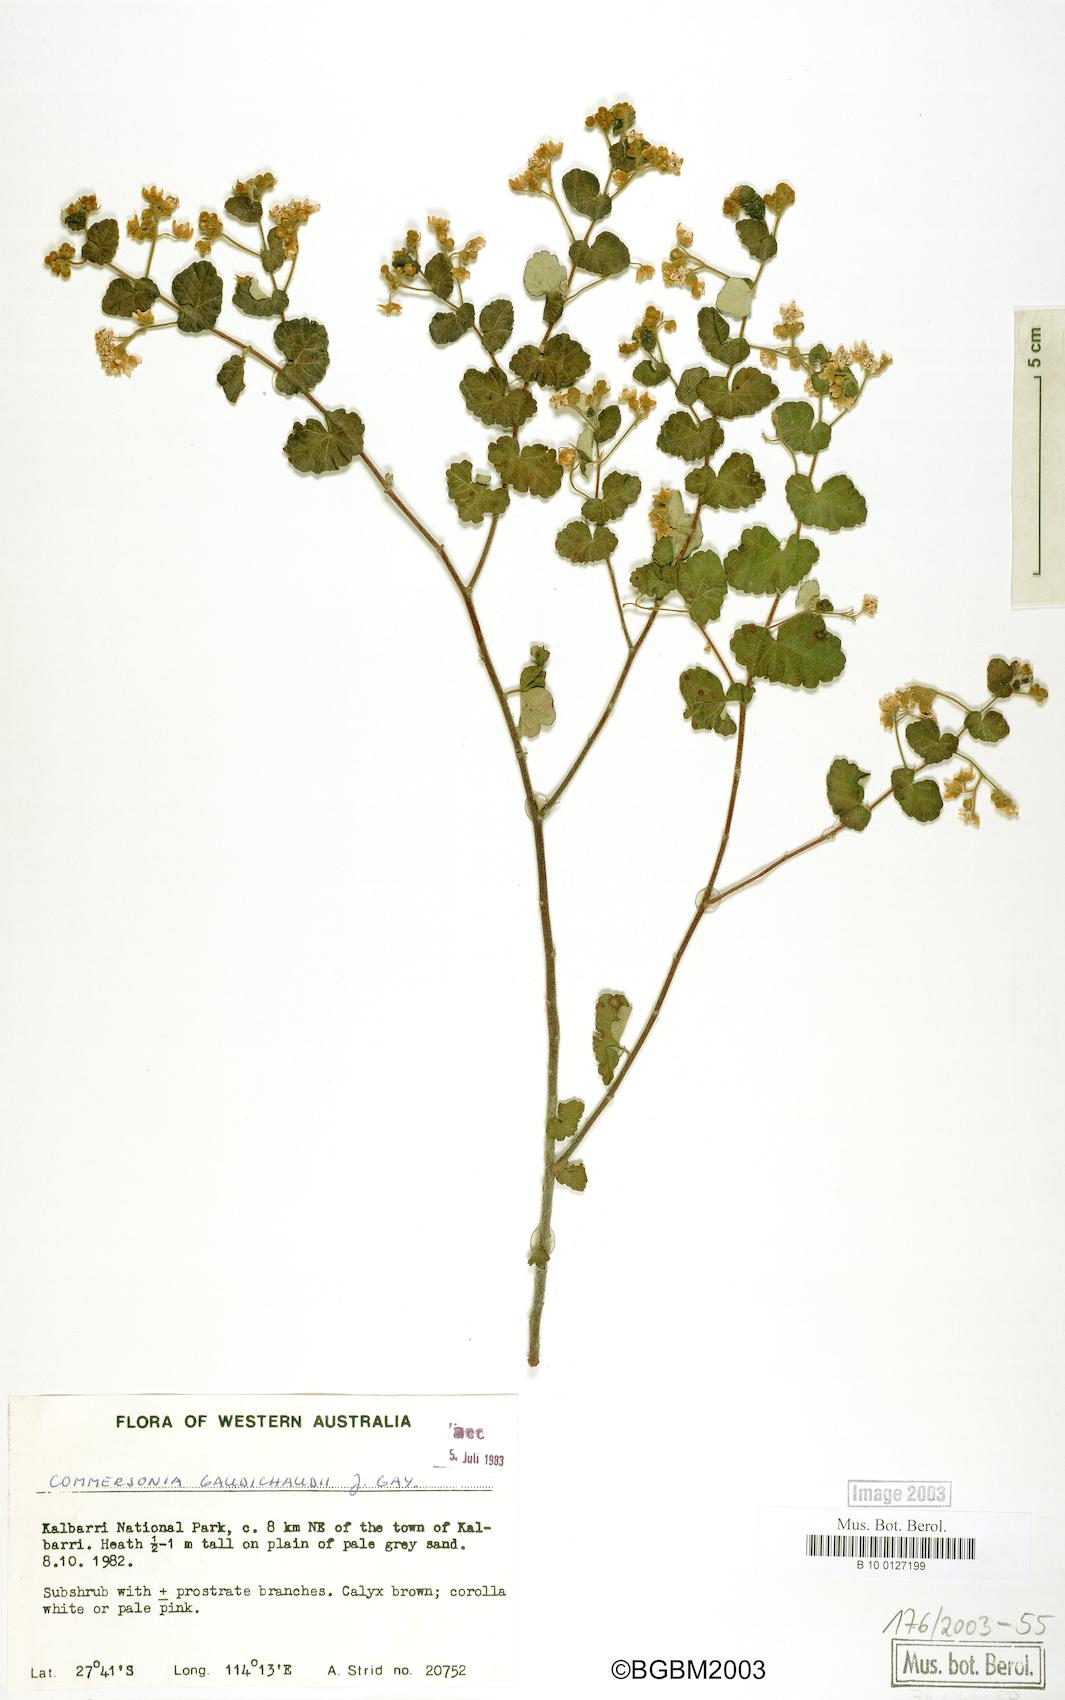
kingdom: Plantae
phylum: Tracheophyta
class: Magnoliopsida
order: Malvales
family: Malvaceae
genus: Androcalva
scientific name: Androcalva gaudichaudii
